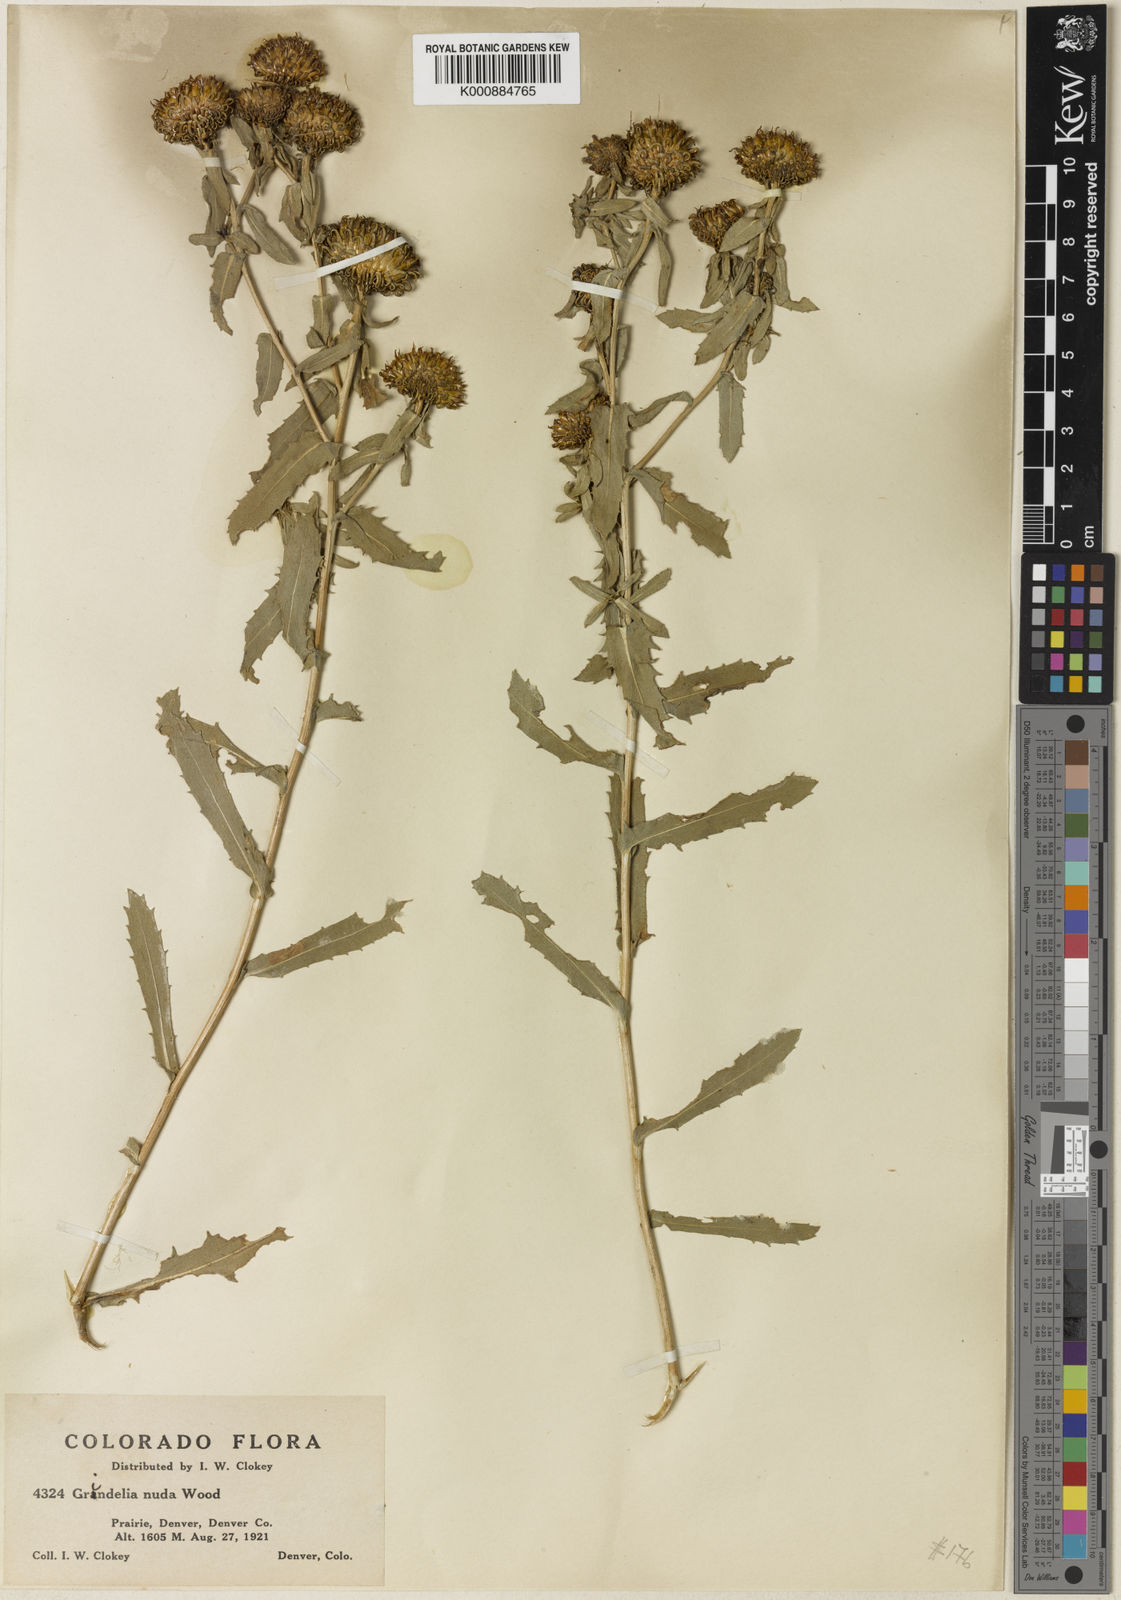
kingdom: Plantae
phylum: Tracheophyta
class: Magnoliopsida
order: Asterales
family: Asteraceae
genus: Grindelia
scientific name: Grindelia hirsutula
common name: Hairy gumweed
